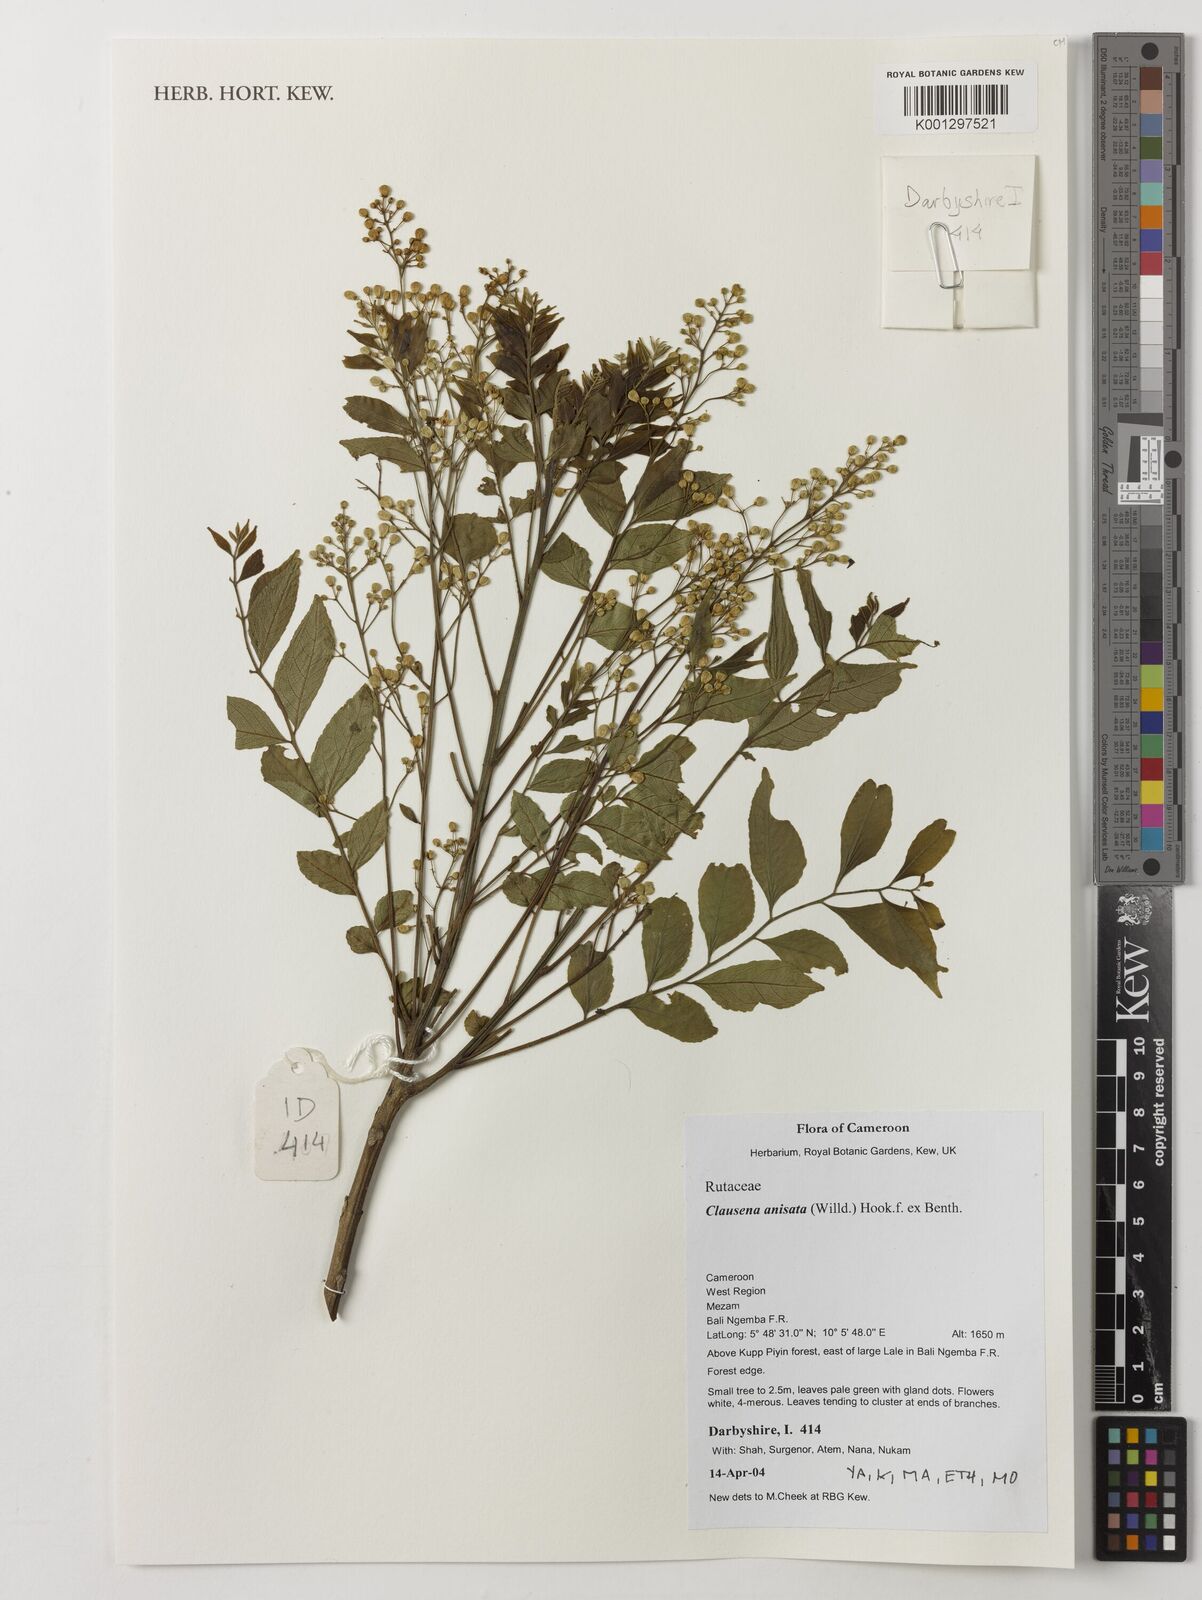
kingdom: Plantae
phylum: Tracheophyta
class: Magnoliopsida
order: Sapindales
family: Rutaceae
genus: Clausena
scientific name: Clausena anisata
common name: Horsewood
